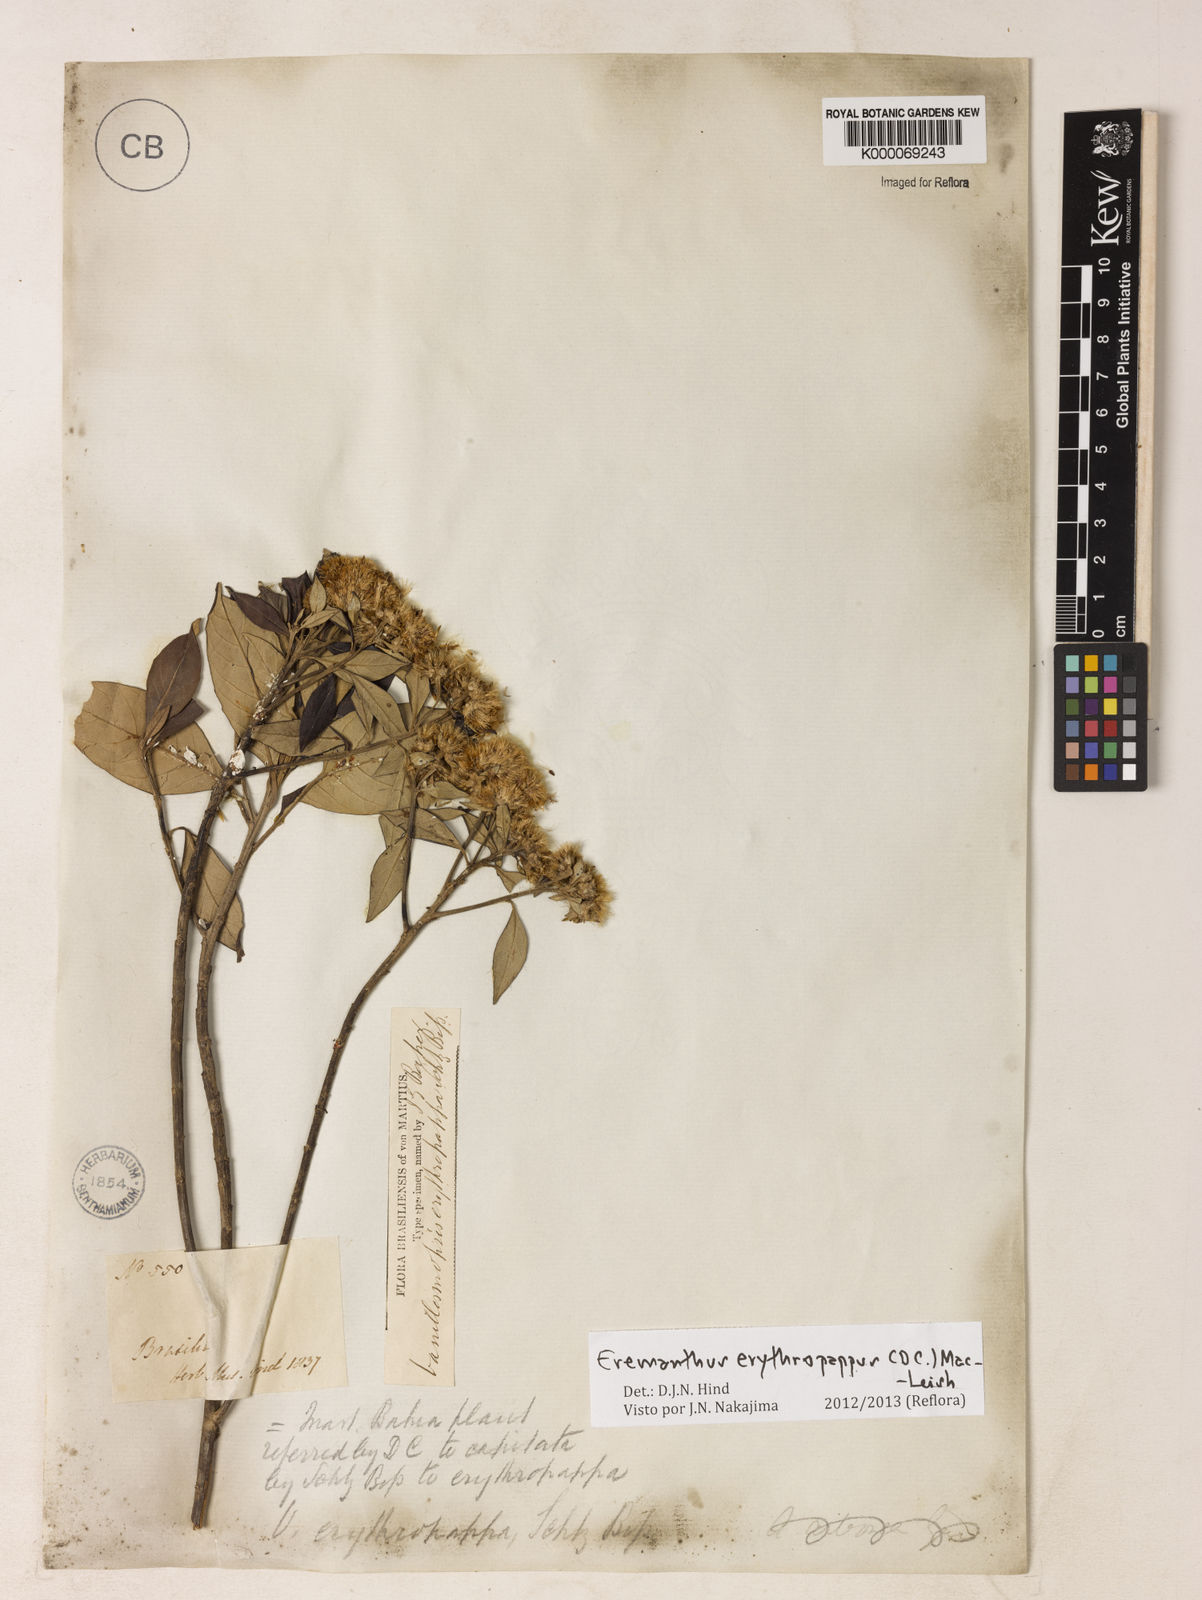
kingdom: Plantae
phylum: Tracheophyta
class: Magnoliopsida
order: Asterales
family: Asteraceae
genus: Eremanthus
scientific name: Eremanthus erythropappus
